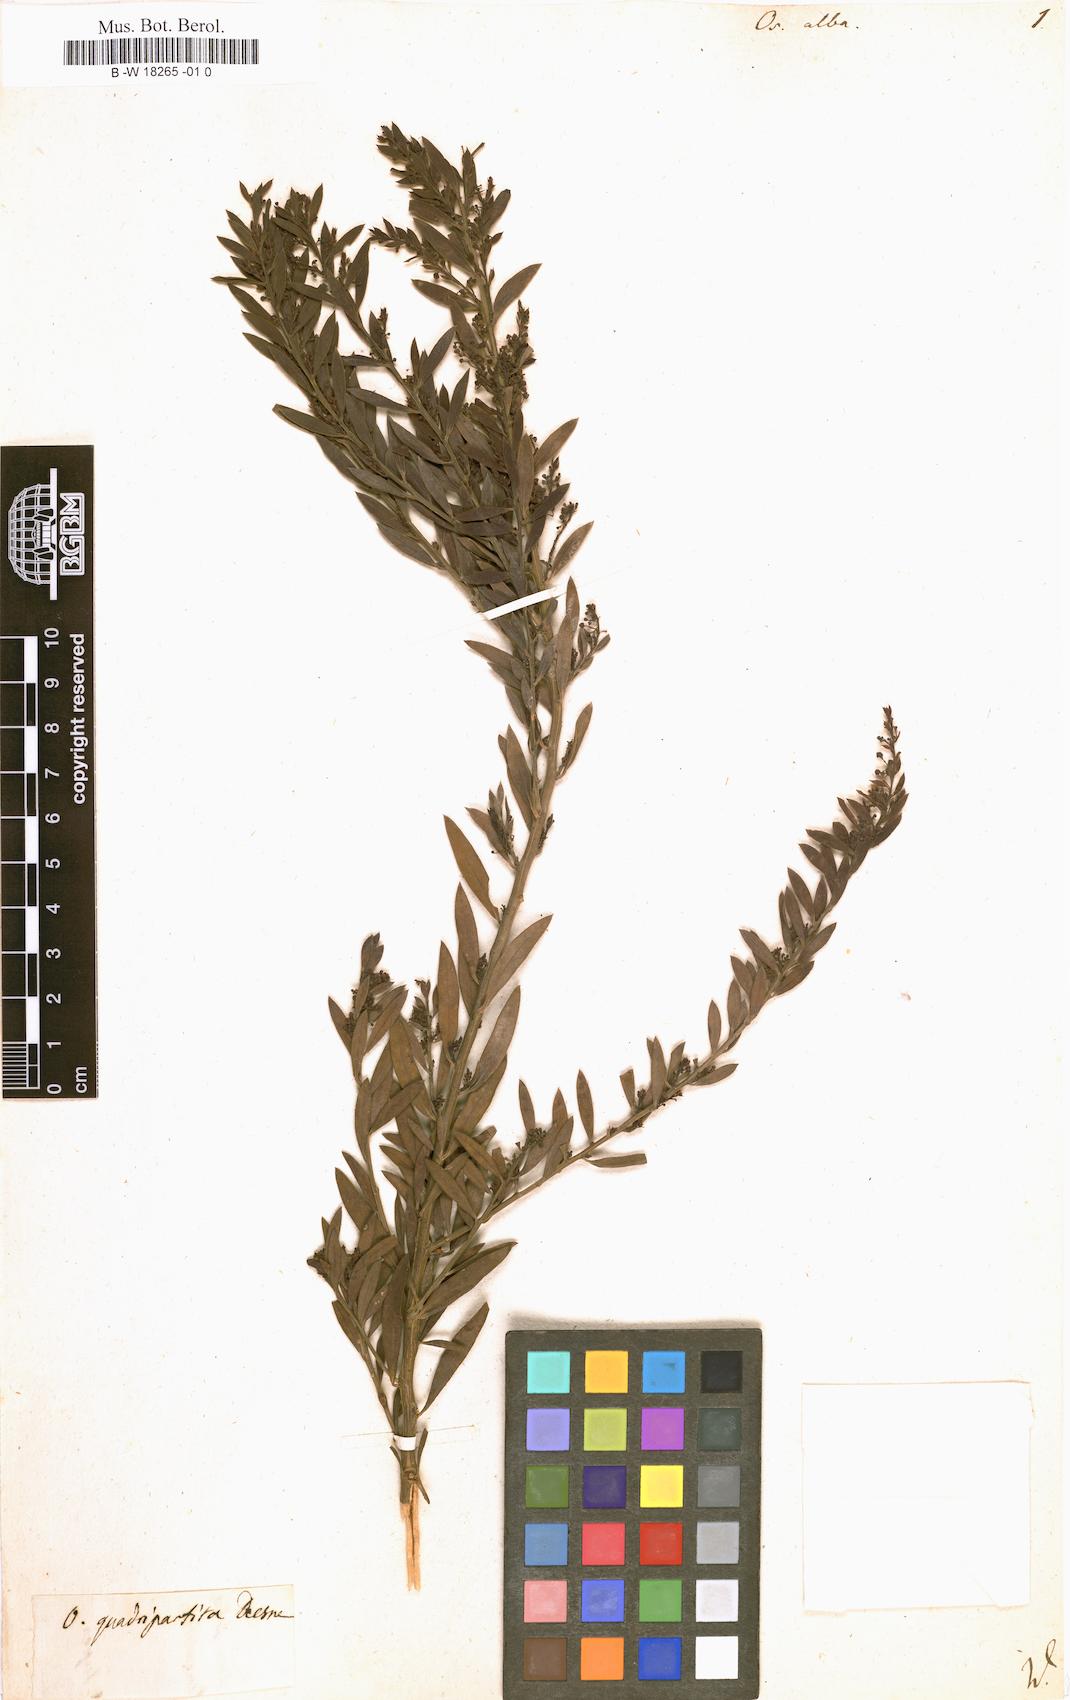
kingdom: Plantae
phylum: Tracheophyta
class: Magnoliopsida
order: Santalales
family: Santalaceae
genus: Osyris
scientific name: Osyris alba
